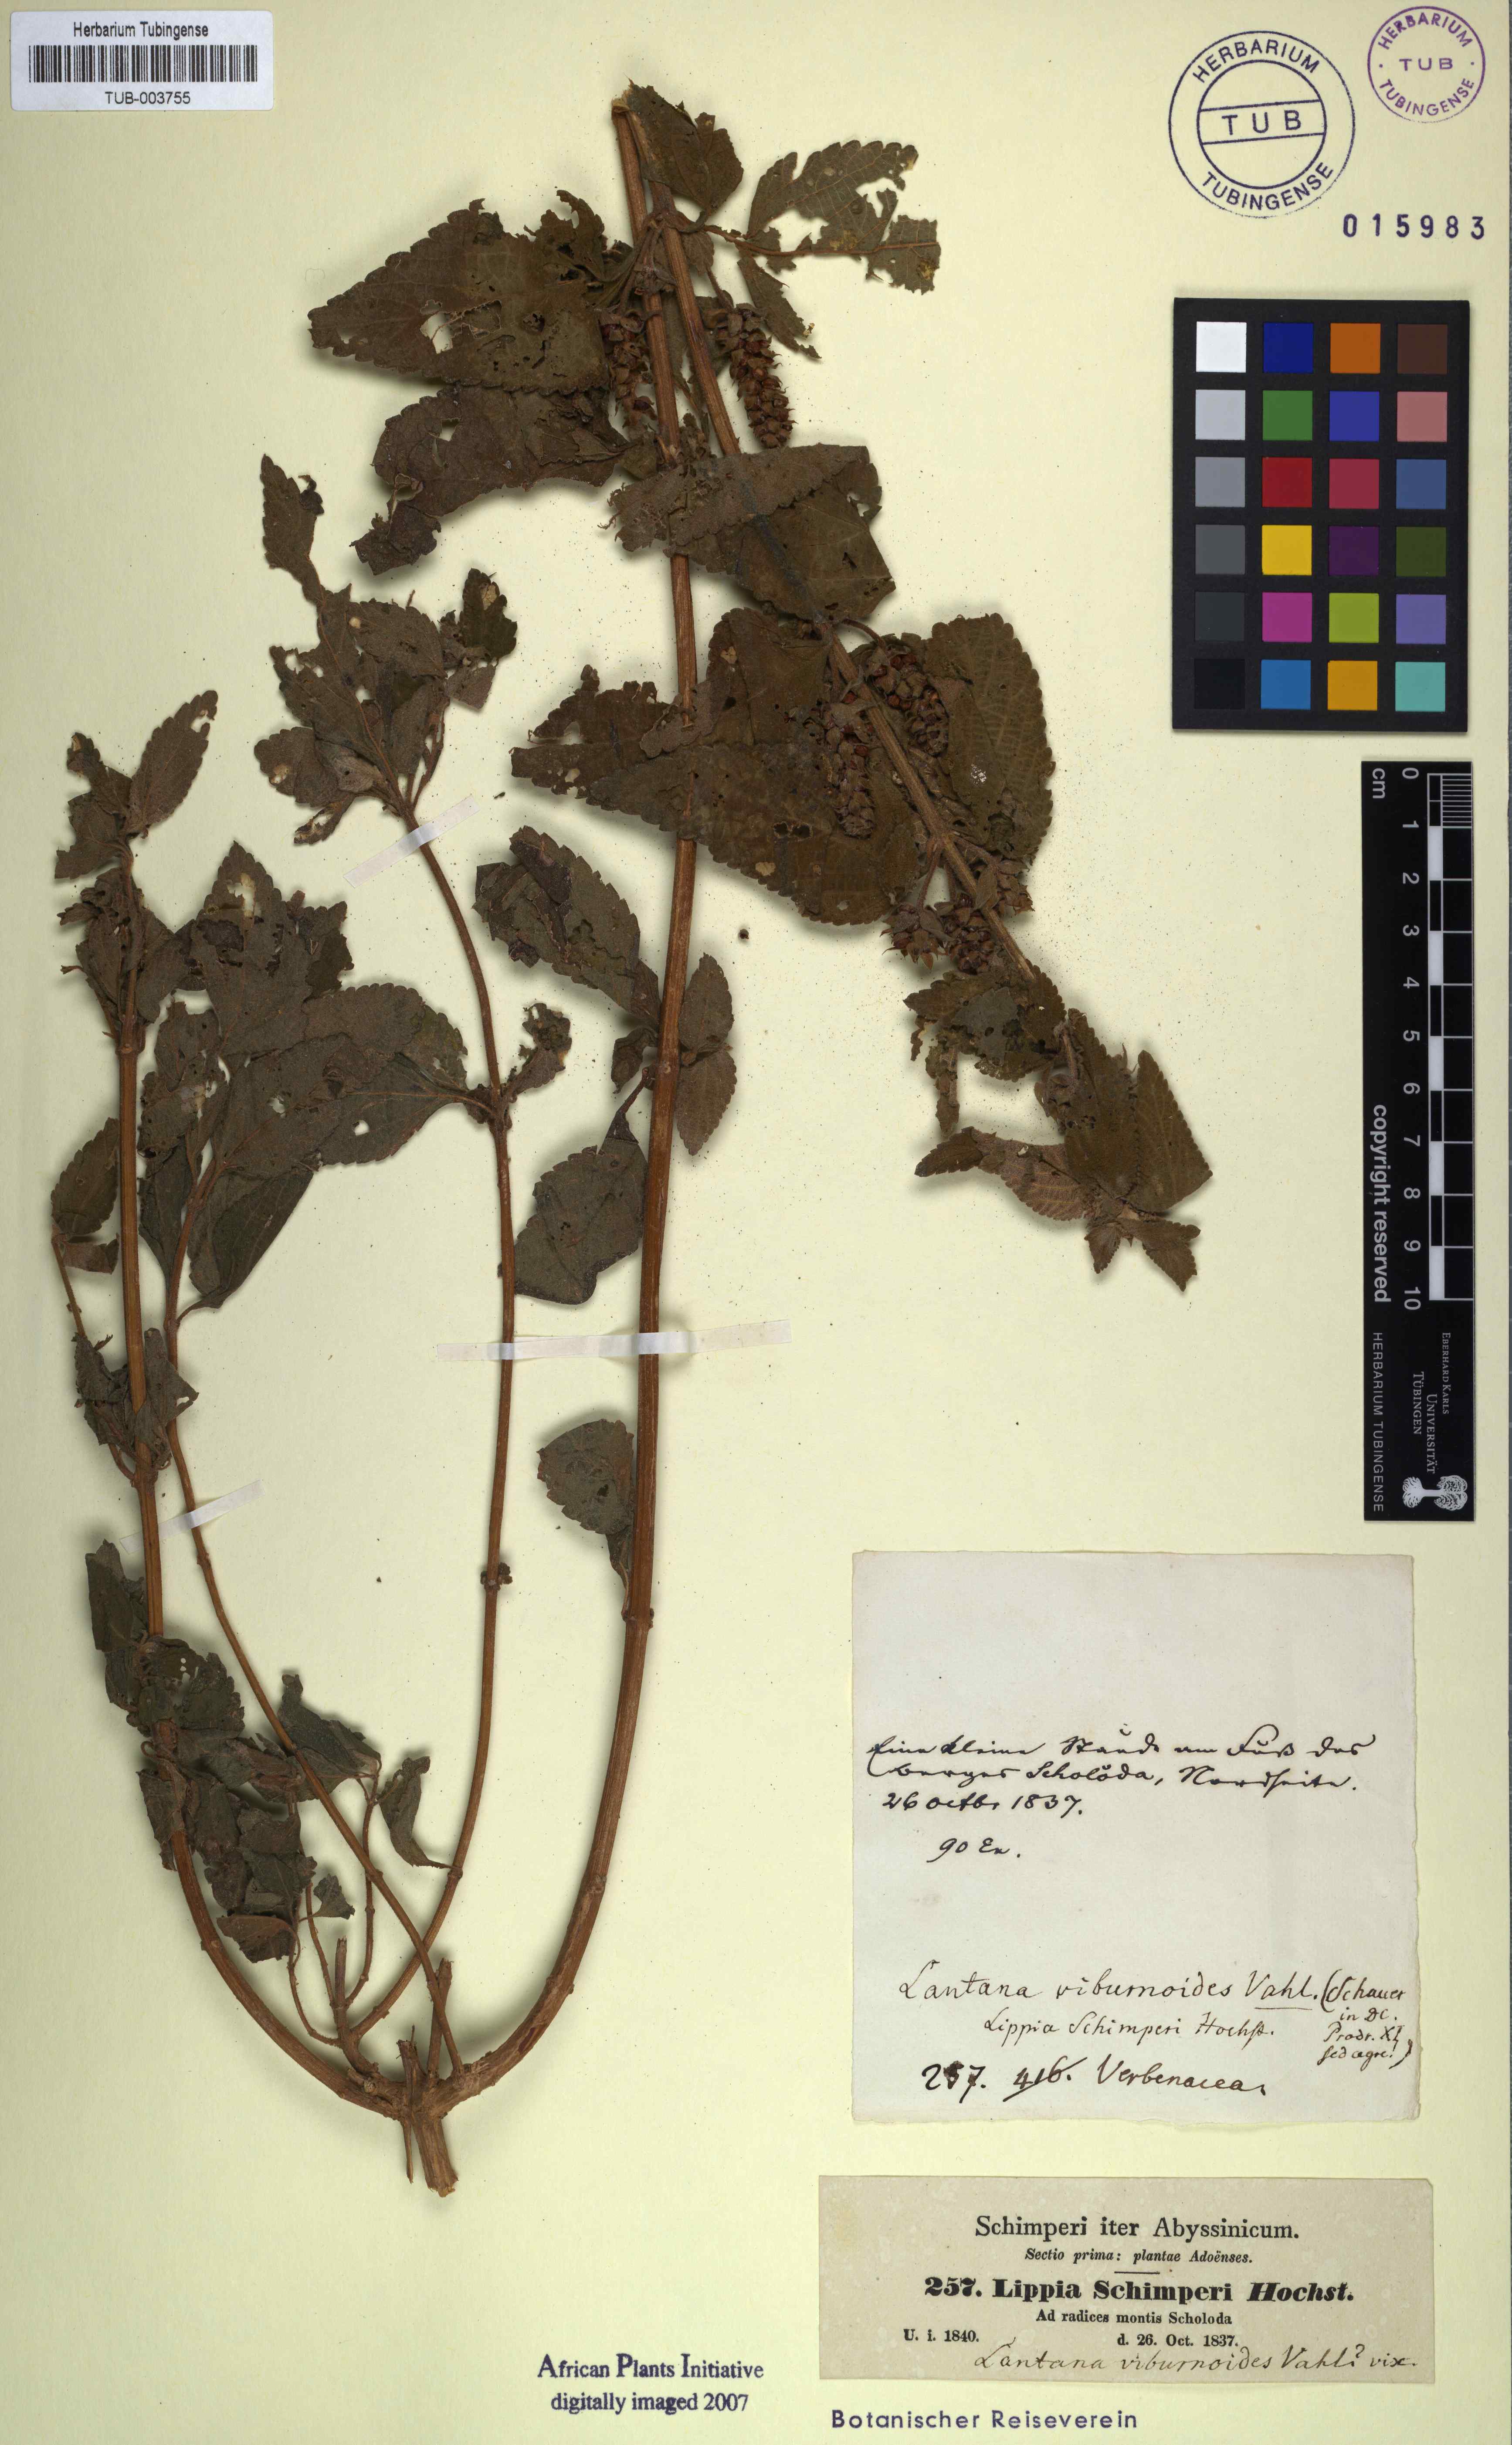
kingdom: Plantae
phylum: Tracheophyta
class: Magnoliopsida
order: Lamiales
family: Verbenaceae
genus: Lantana
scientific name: Lantana viburnoides
